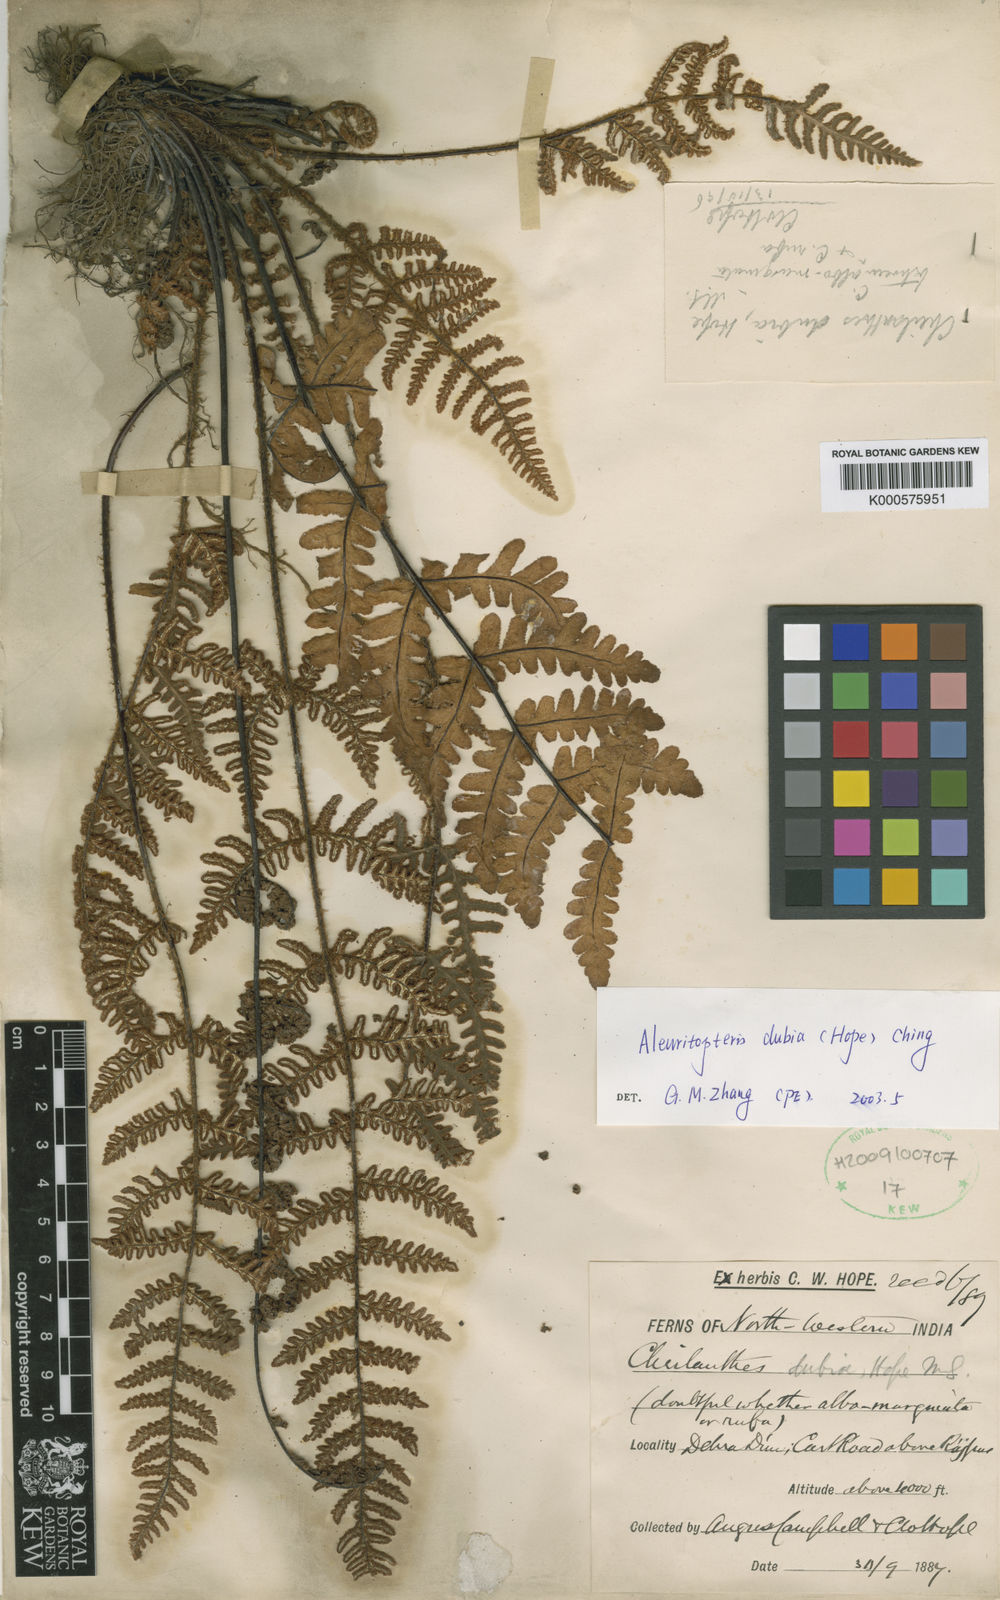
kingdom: Plantae
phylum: Tracheophyta
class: Polypodiopsida
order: Polypodiales
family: Pteridaceae
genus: Aleuritopteris
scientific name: Aleuritopteris dubia
